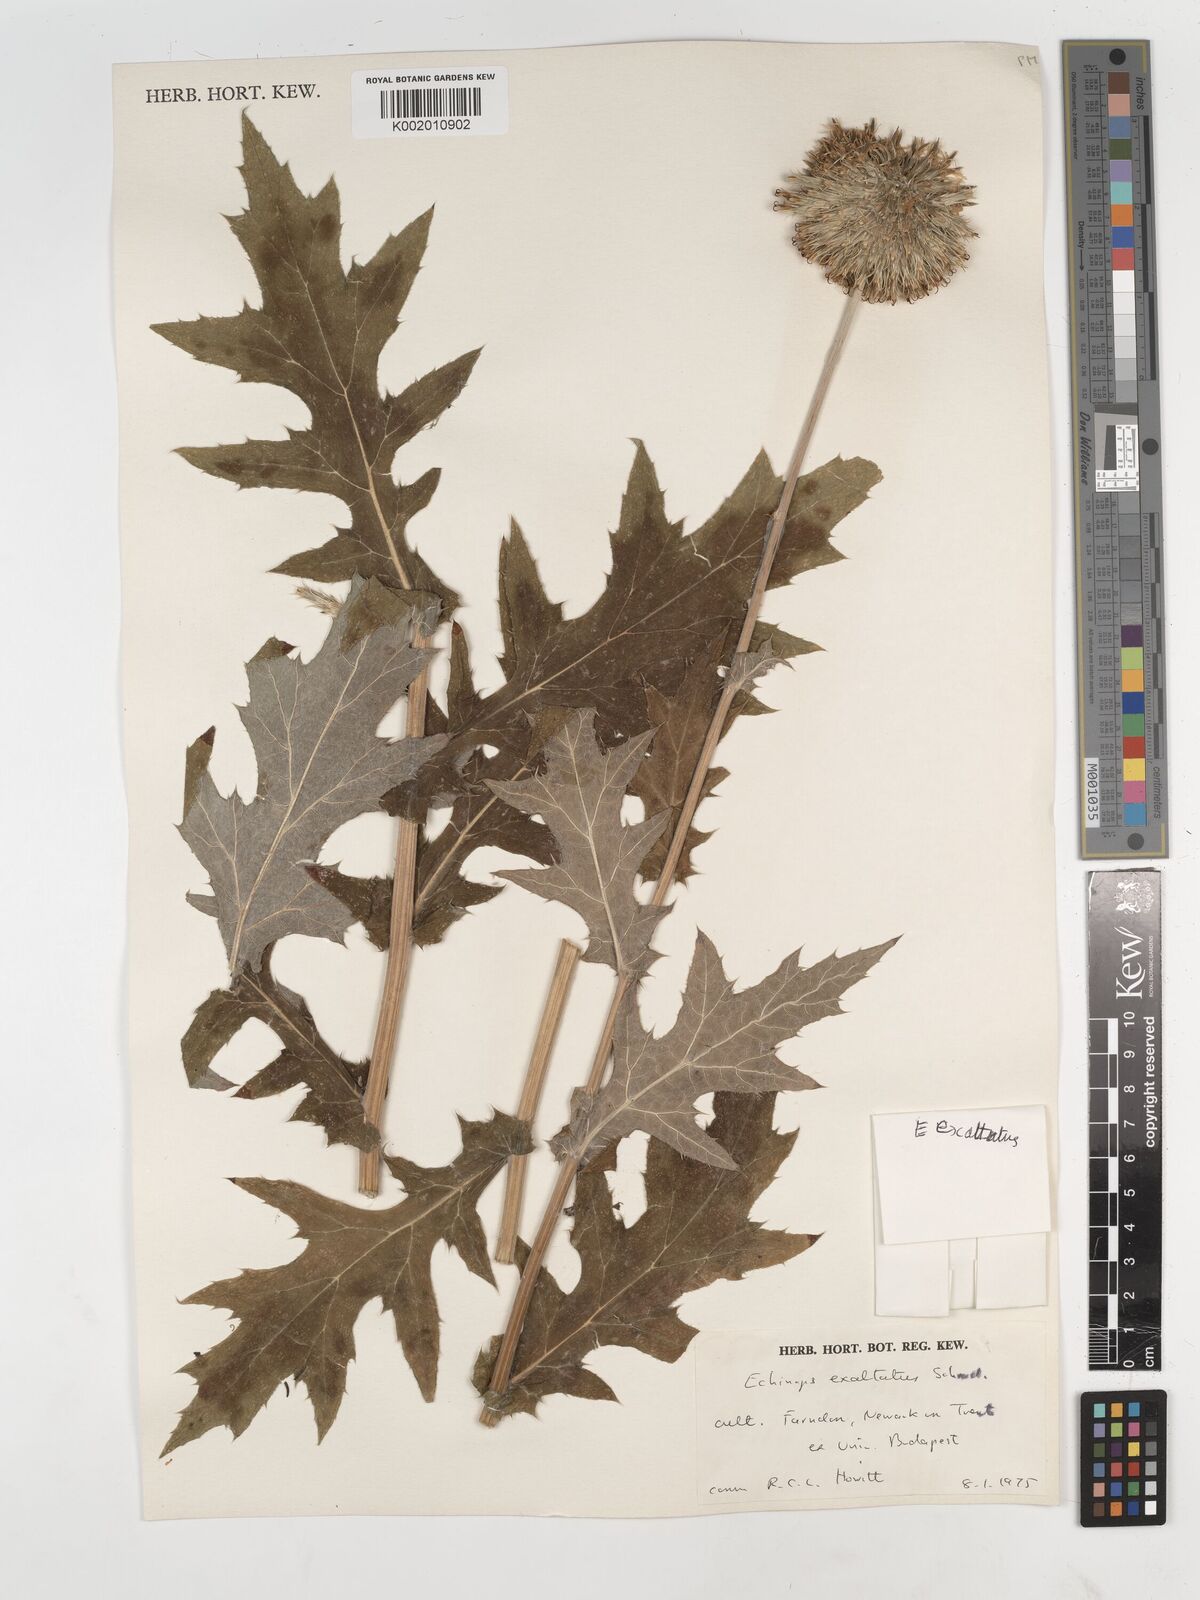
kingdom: Plantae
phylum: Tracheophyta
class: Magnoliopsida
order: Asterales
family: Asteraceae
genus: Echinops
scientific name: Echinops exaltatus
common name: Globe-thistle
